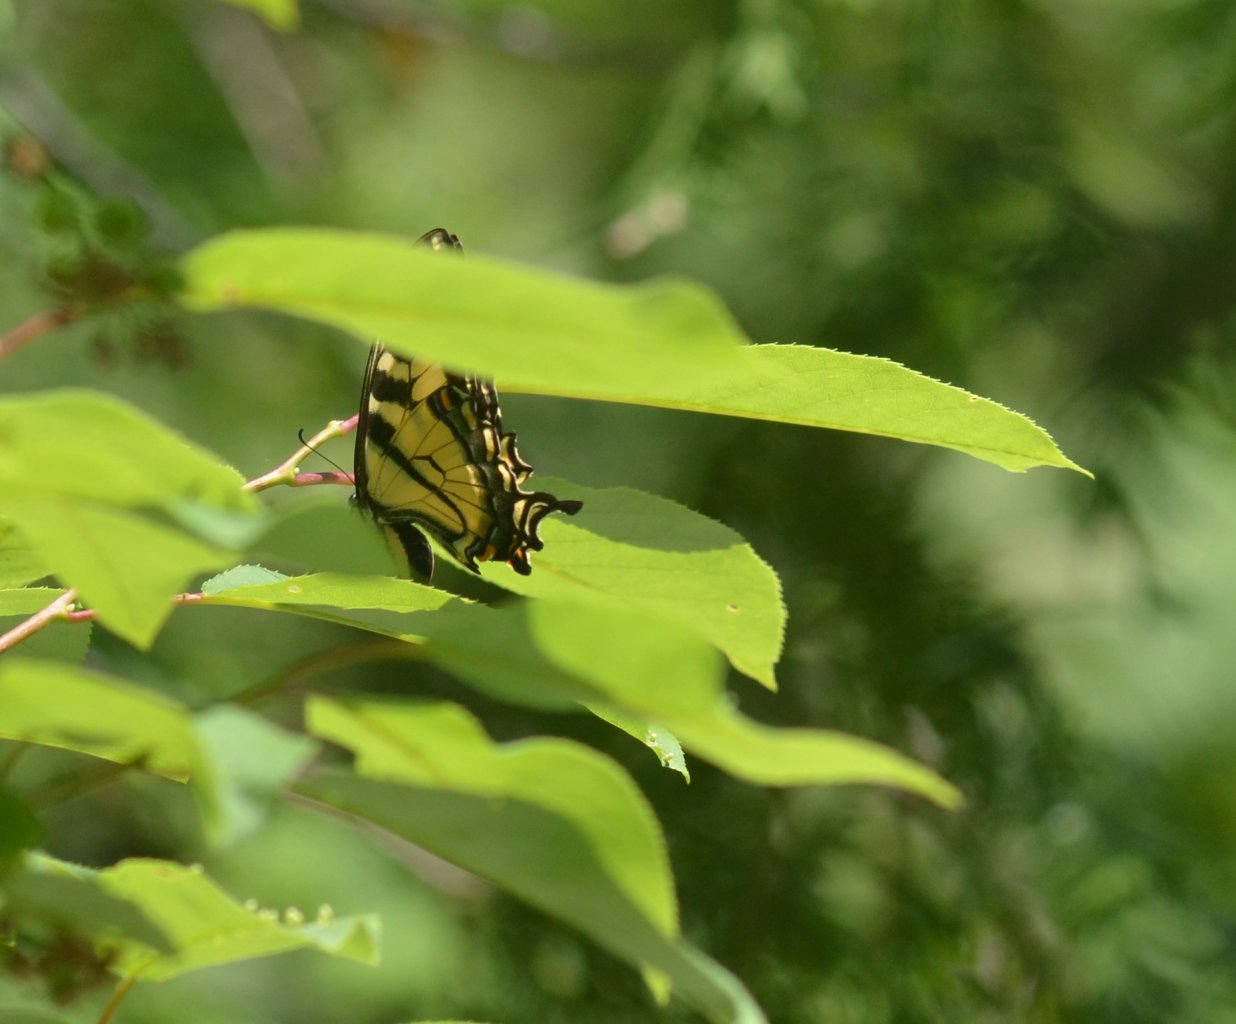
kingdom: Animalia
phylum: Arthropoda
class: Insecta
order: Lepidoptera
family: Papilionidae
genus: Pterourus
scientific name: Pterourus canadensis
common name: Canadian Tiger Swallowtail
